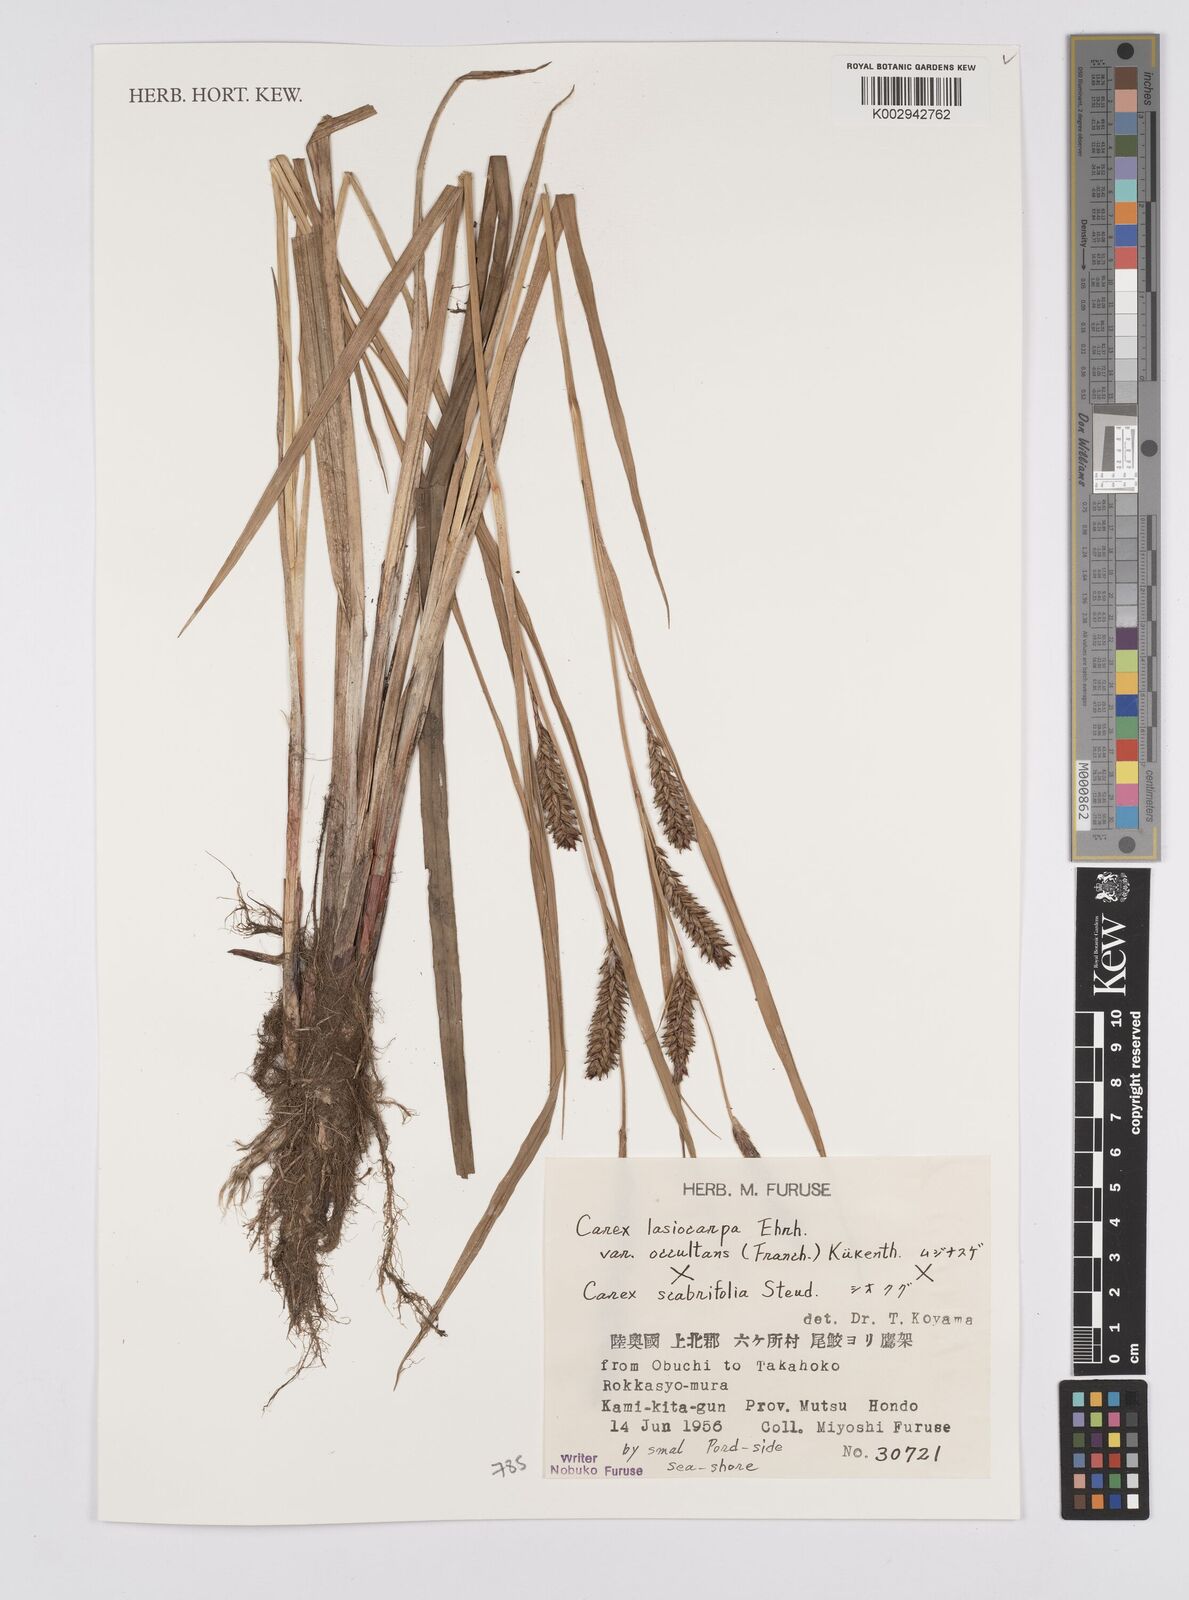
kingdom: Plantae
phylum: Tracheophyta
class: Liliopsida
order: Poales
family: Cyperaceae
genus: Carex
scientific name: Carex lasiocarpa
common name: Slender sedge
